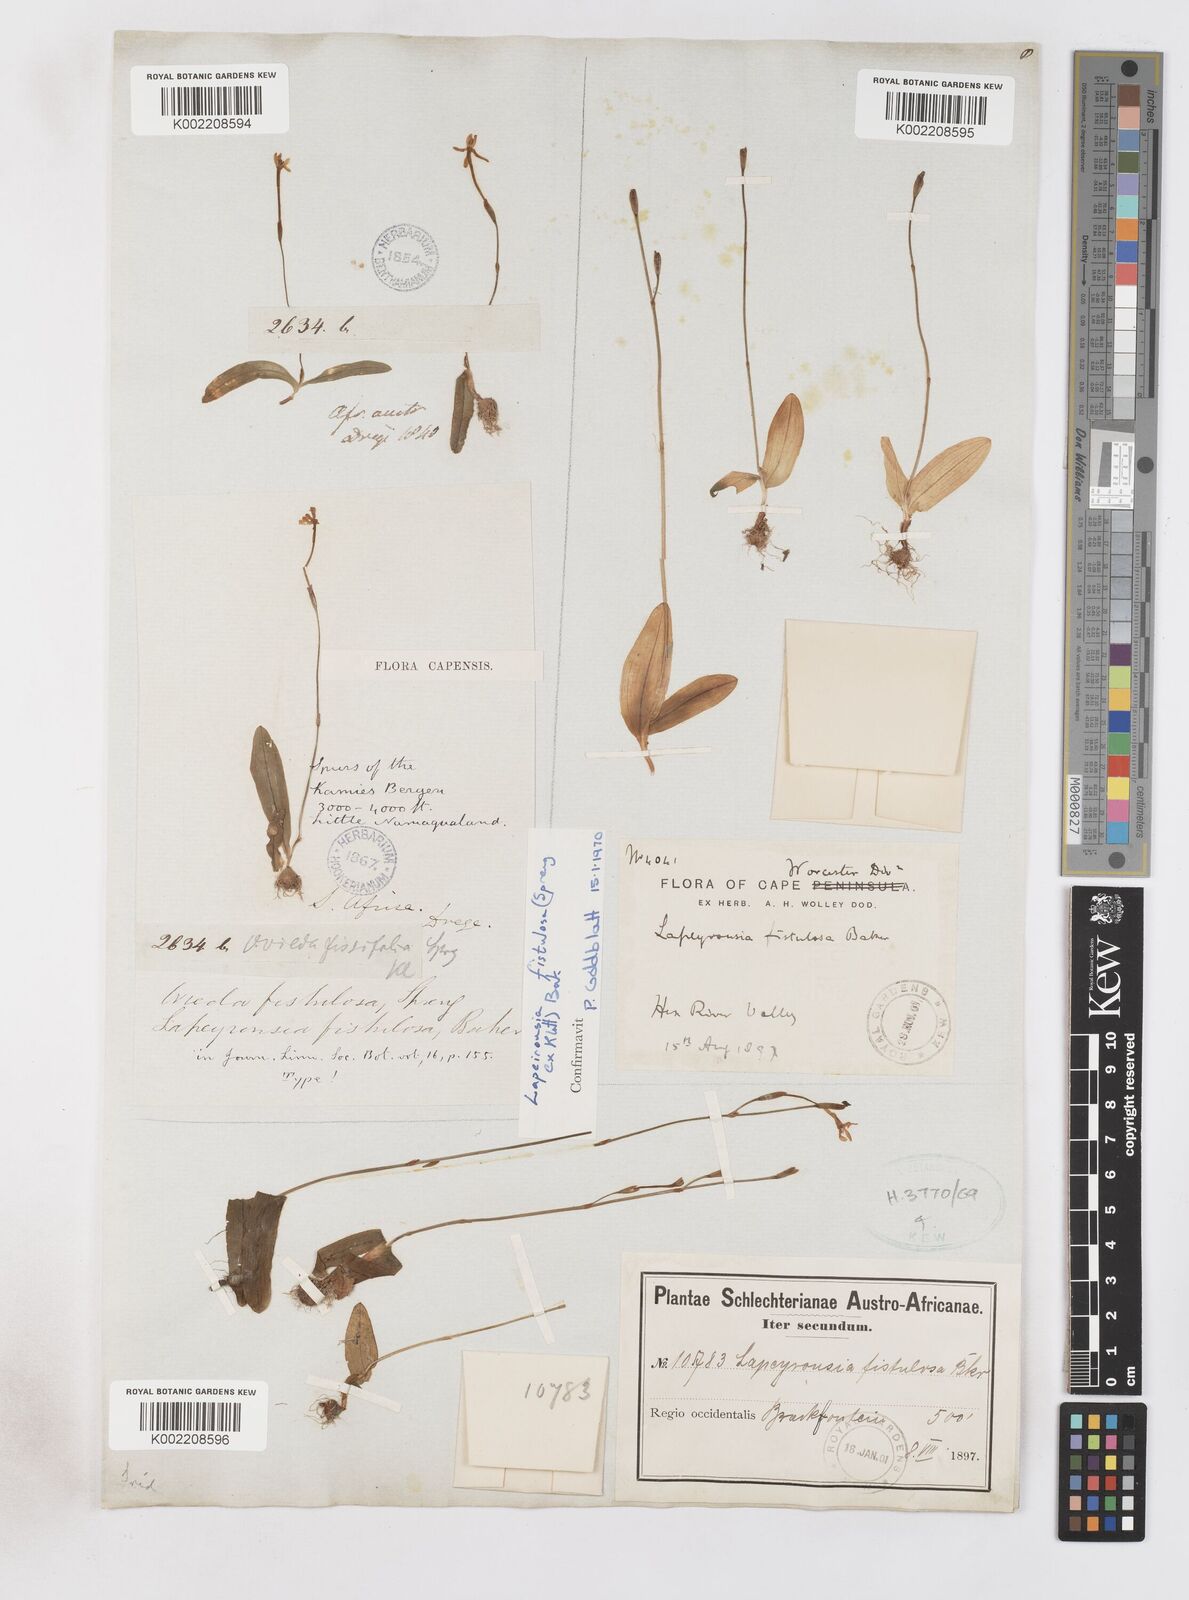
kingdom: Plantae
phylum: Tracheophyta
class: Liliopsida
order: Asparagales
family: Iridaceae
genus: Xenoscapa
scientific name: Xenoscapa fistulosa
